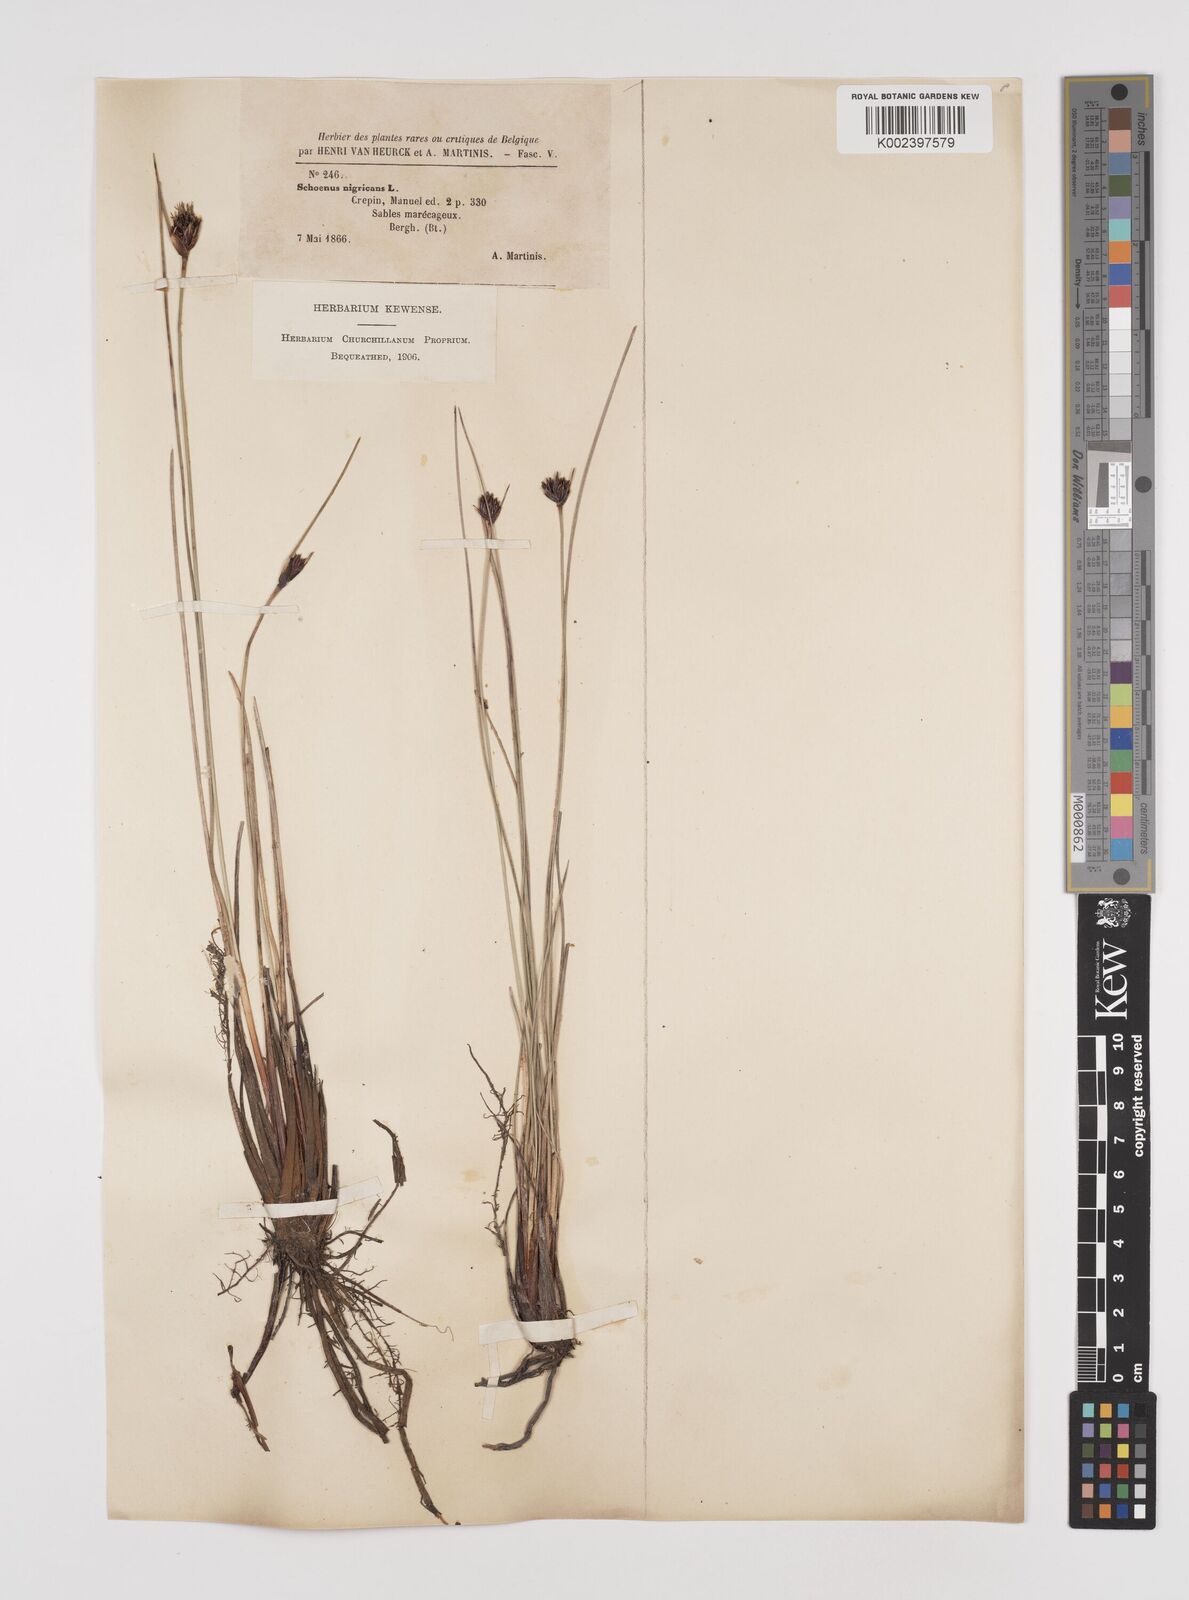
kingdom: Plantae
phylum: Tracheophyta
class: Liliopsida
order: Poales
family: Cyperaceae
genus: Schoenus
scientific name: Schoenus nigricans
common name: Black bog-rush
